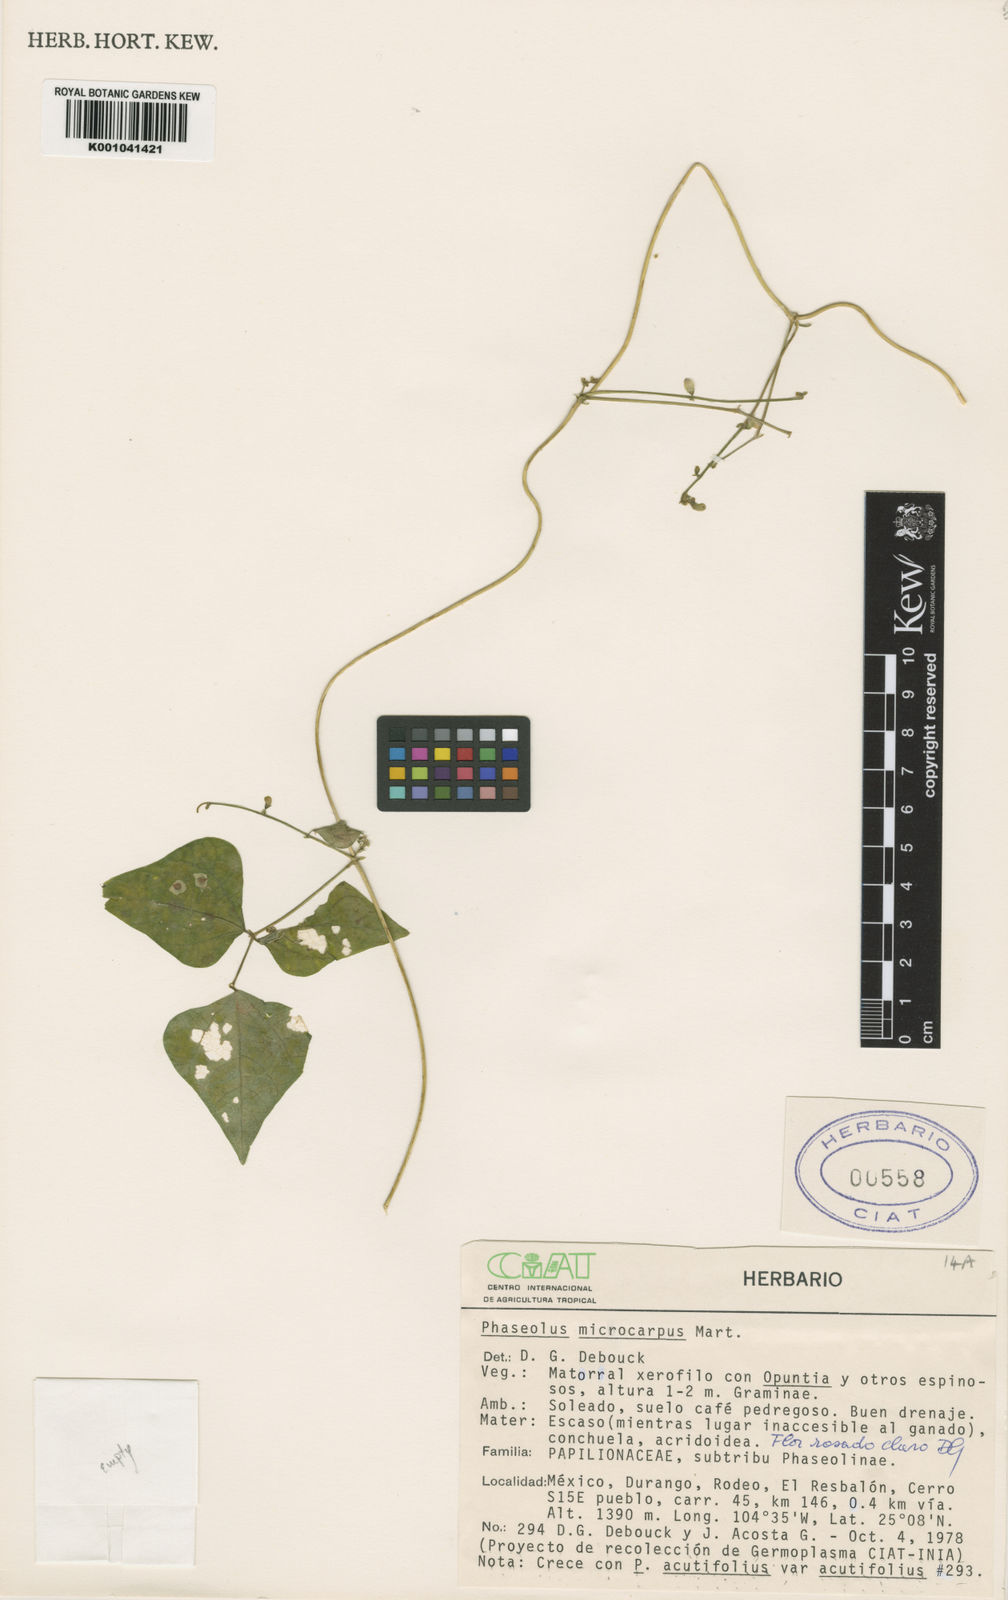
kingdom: Plantae
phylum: Tracheophyta
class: Magnoliopsida
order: Fabales
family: Fabaceae
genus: Phaseolus
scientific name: Phaseolus microcarpus
